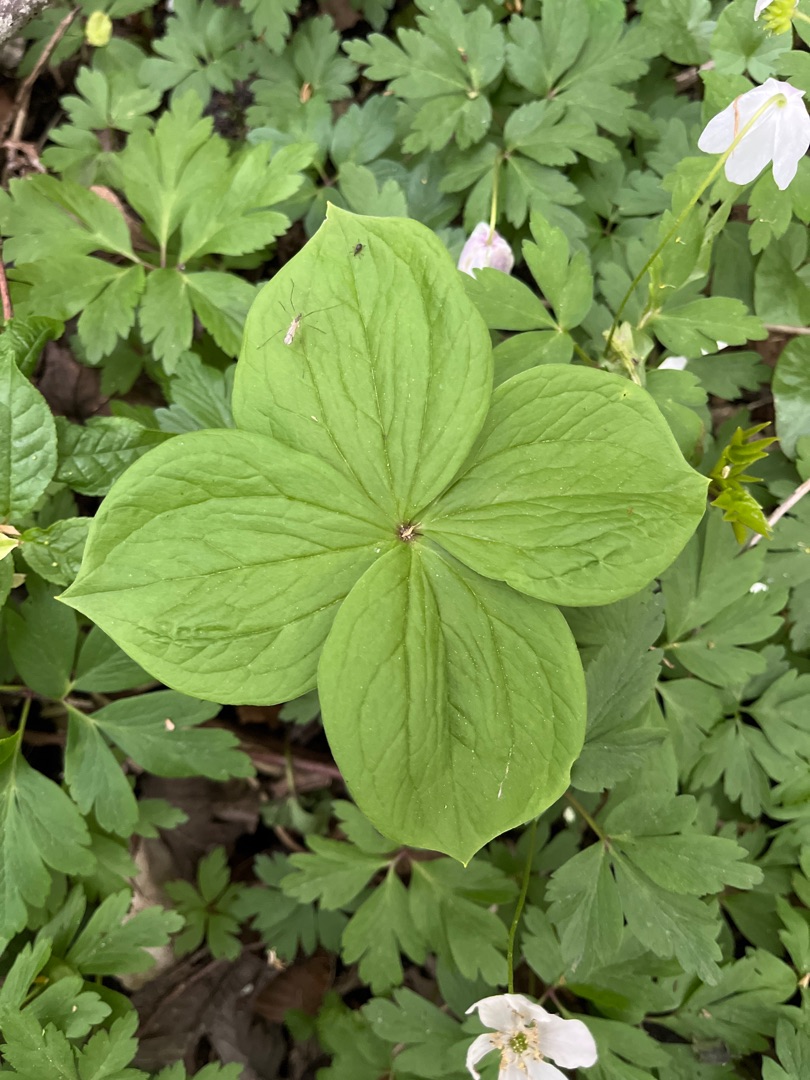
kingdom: Plantae
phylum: Tracheophyta
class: Liliopsida
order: Liliales
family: Melanthiaceae
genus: Paris
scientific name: Paris quadrifolia
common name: Firblad
